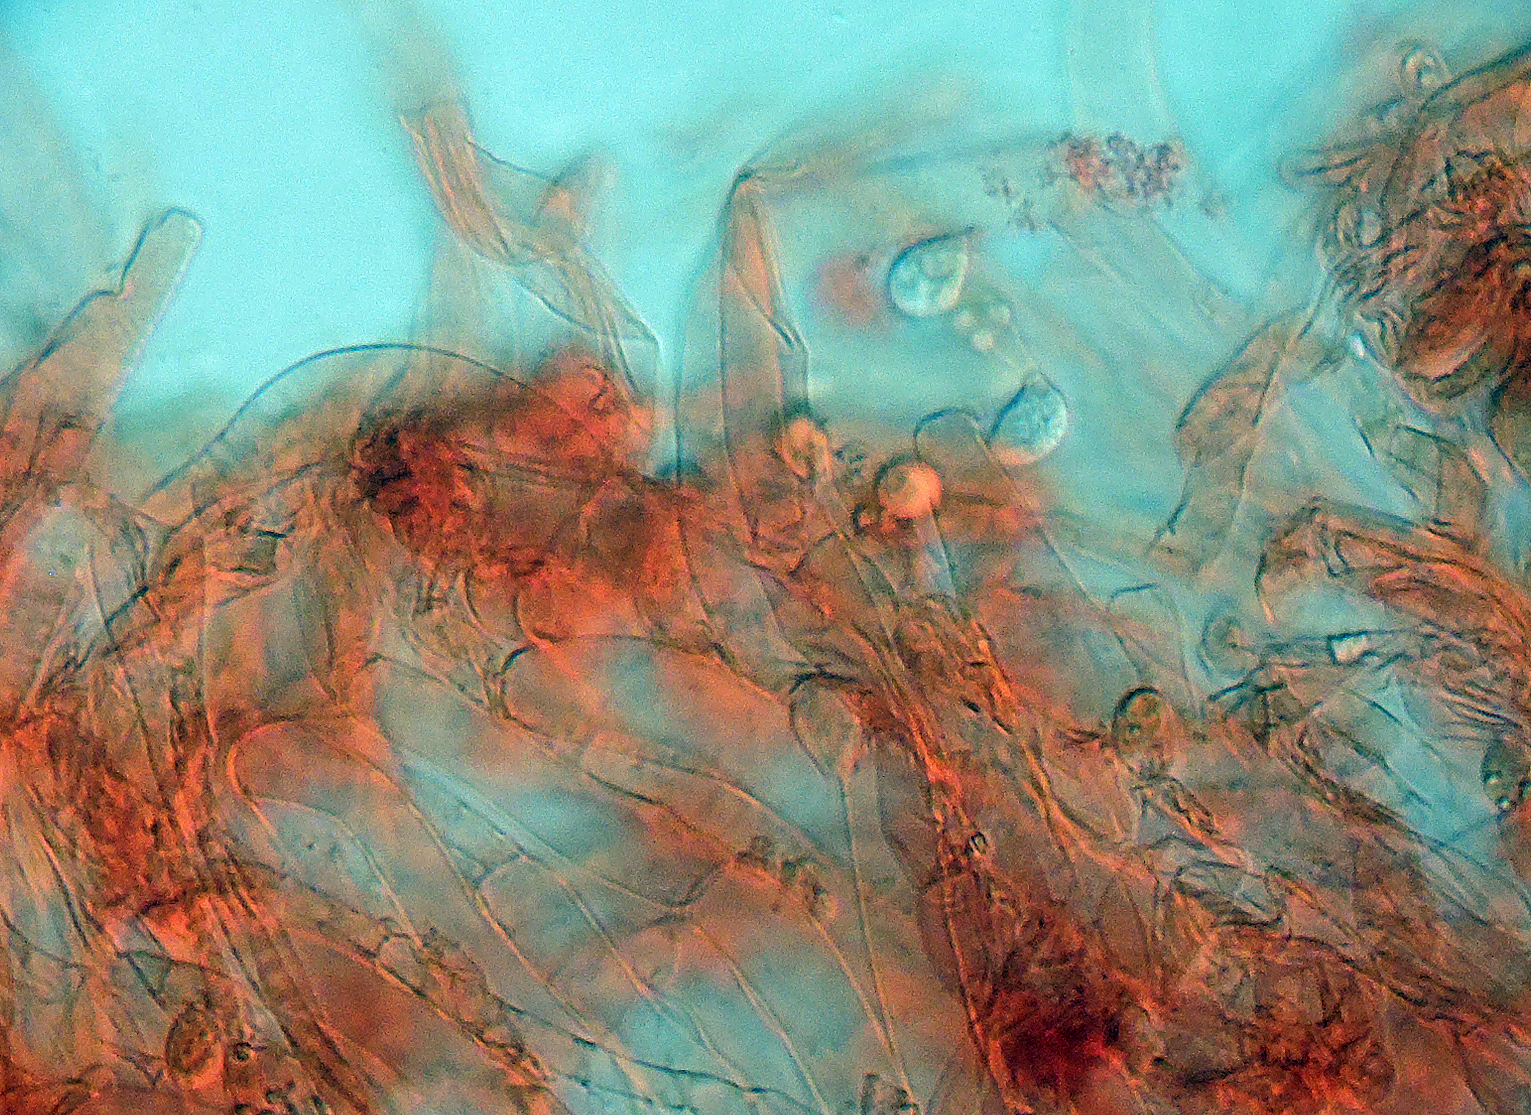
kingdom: Fungi
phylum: Basidiomycota
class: Agaricomycetes
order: Agaricales
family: Hygrophoraceae
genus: Arrhenia
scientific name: Arrhenia obscurata
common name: hede-fontænehat
